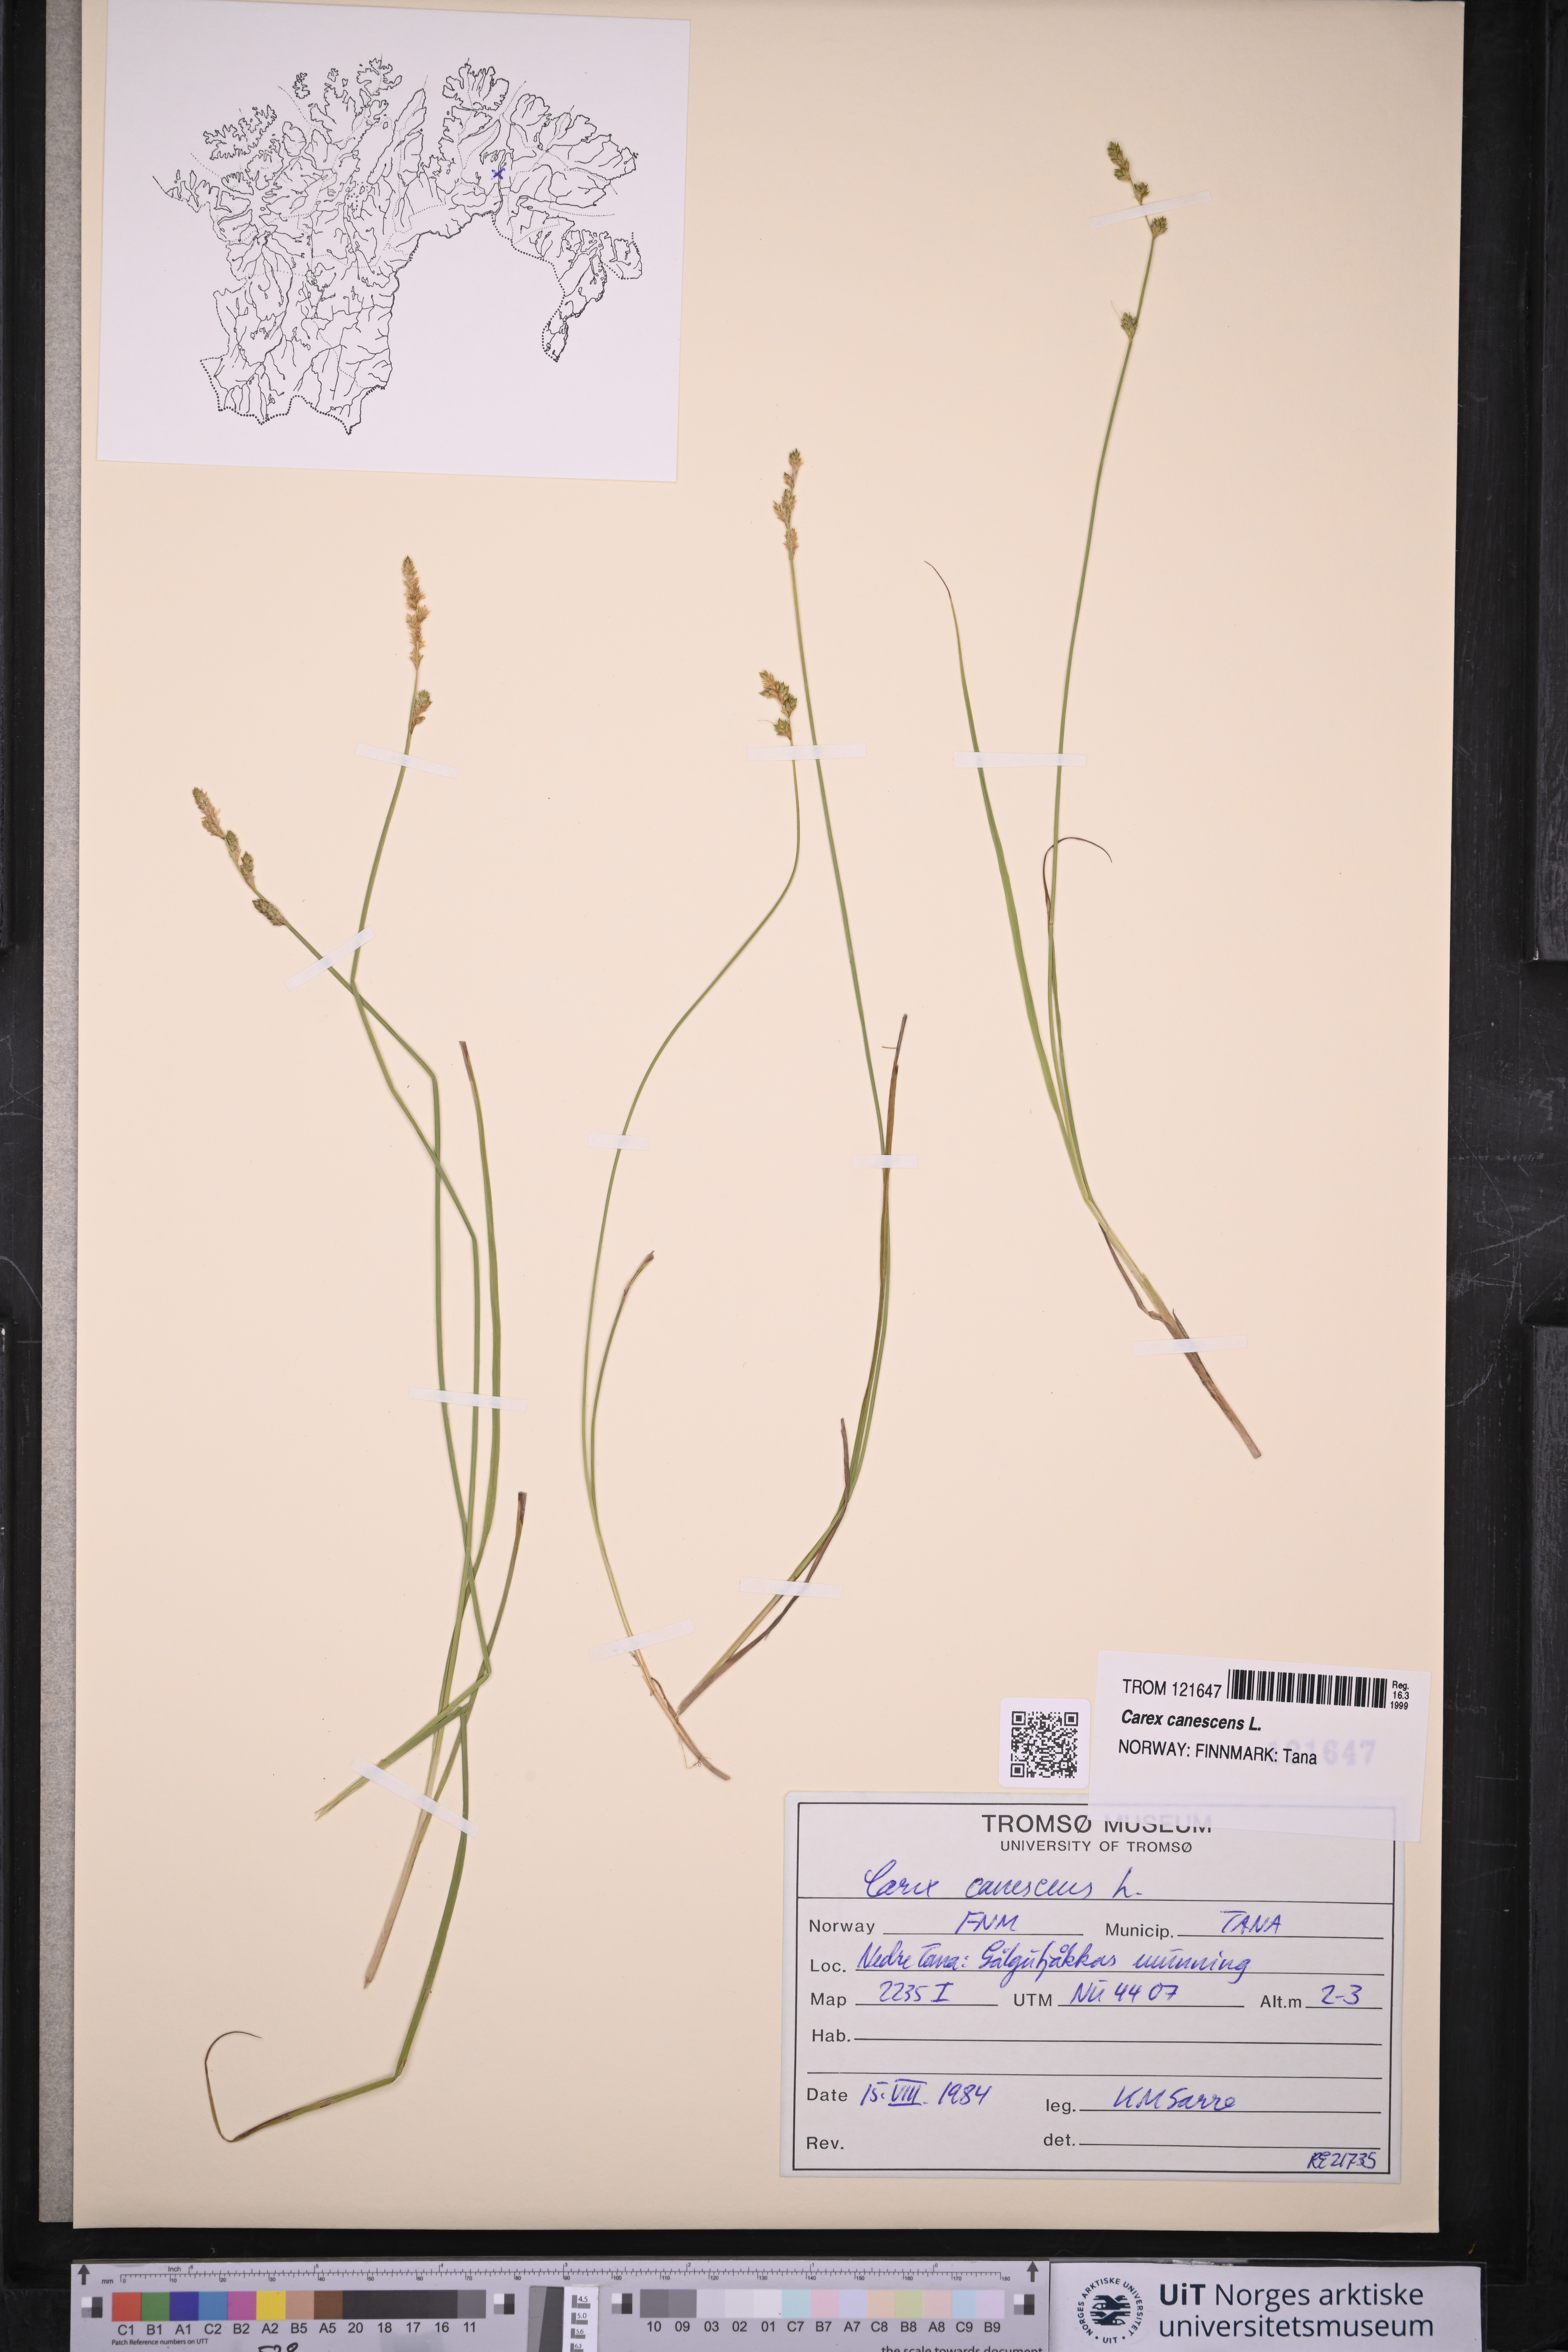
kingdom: Plantae
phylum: Tracheophyta
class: Liliopsida
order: Poales
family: Cyperaceae
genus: Carex
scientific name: Carex canescens
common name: White sedge
